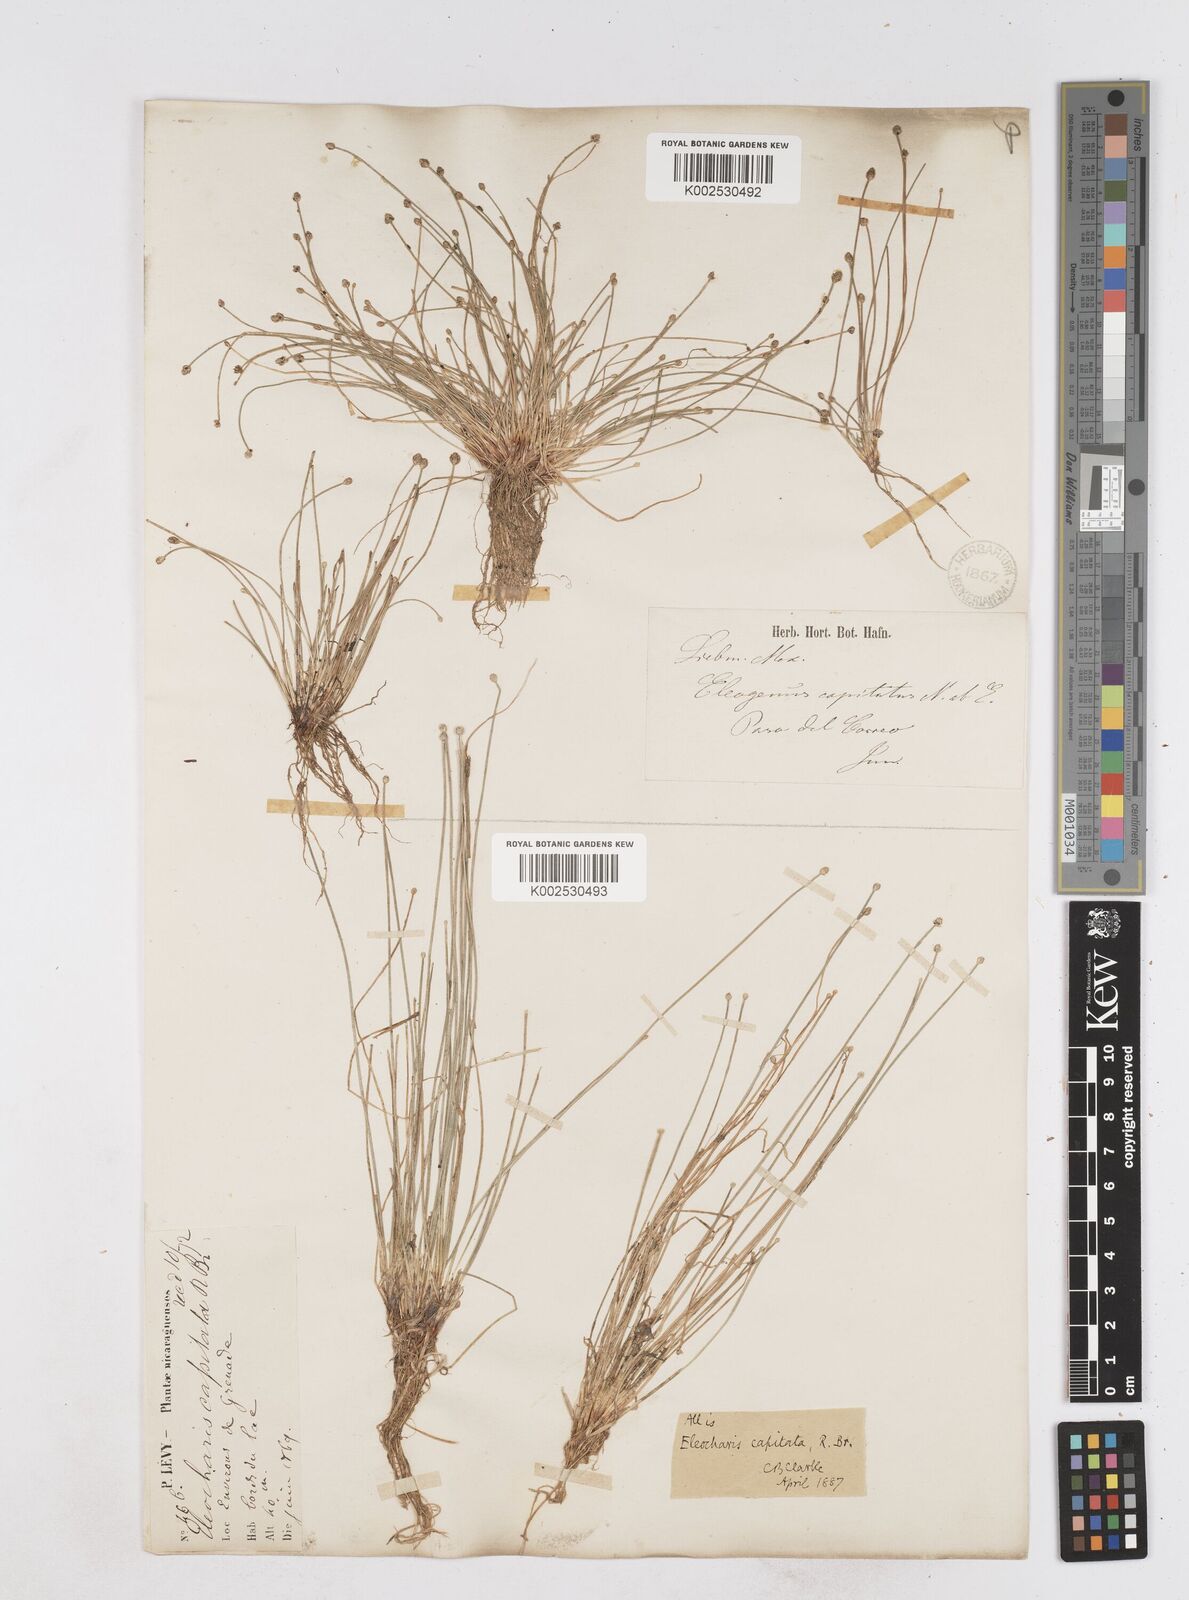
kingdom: Plantae
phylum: Tracheophyta
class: Liliopsida
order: Poales
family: Cyperaceae
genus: Eleocharis
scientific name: Eleocharis geniculata
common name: Canada spikesedge
